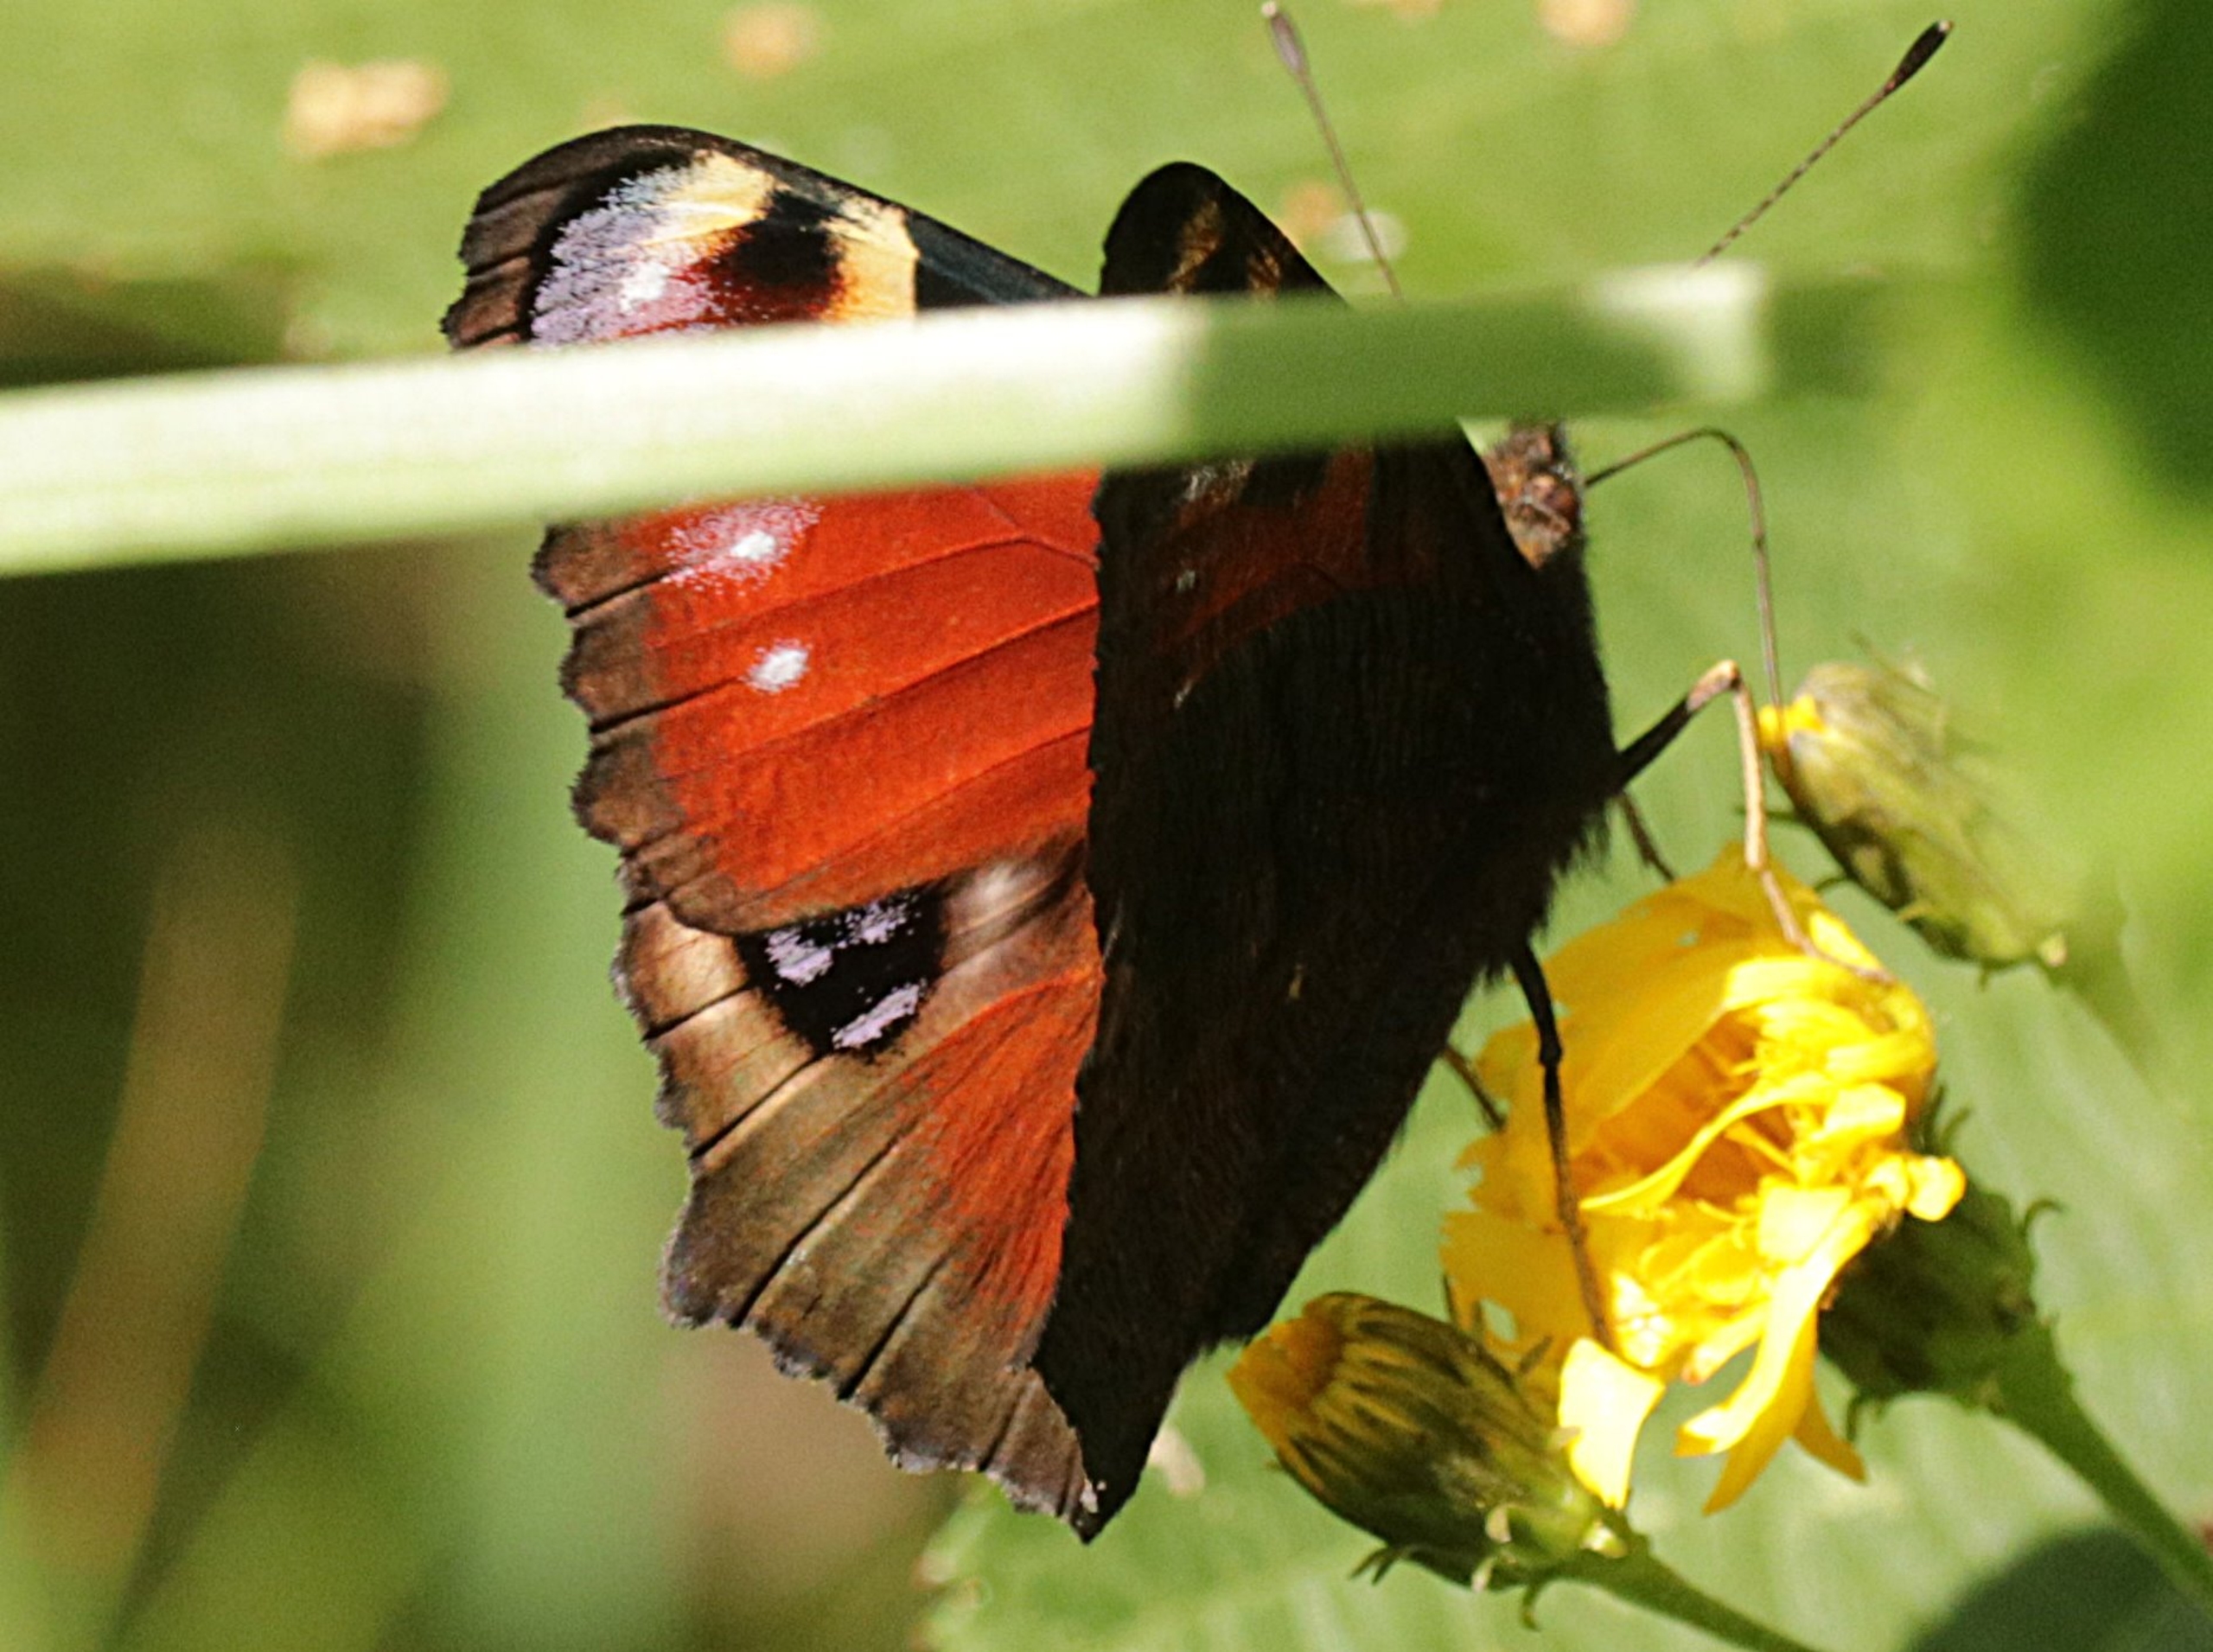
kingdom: Animalia
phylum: Arthropoda
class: Insecta
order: Lepidoptera
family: Nymphalidae
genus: Aglais
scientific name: Aglais io
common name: Dagpåfugleøje
